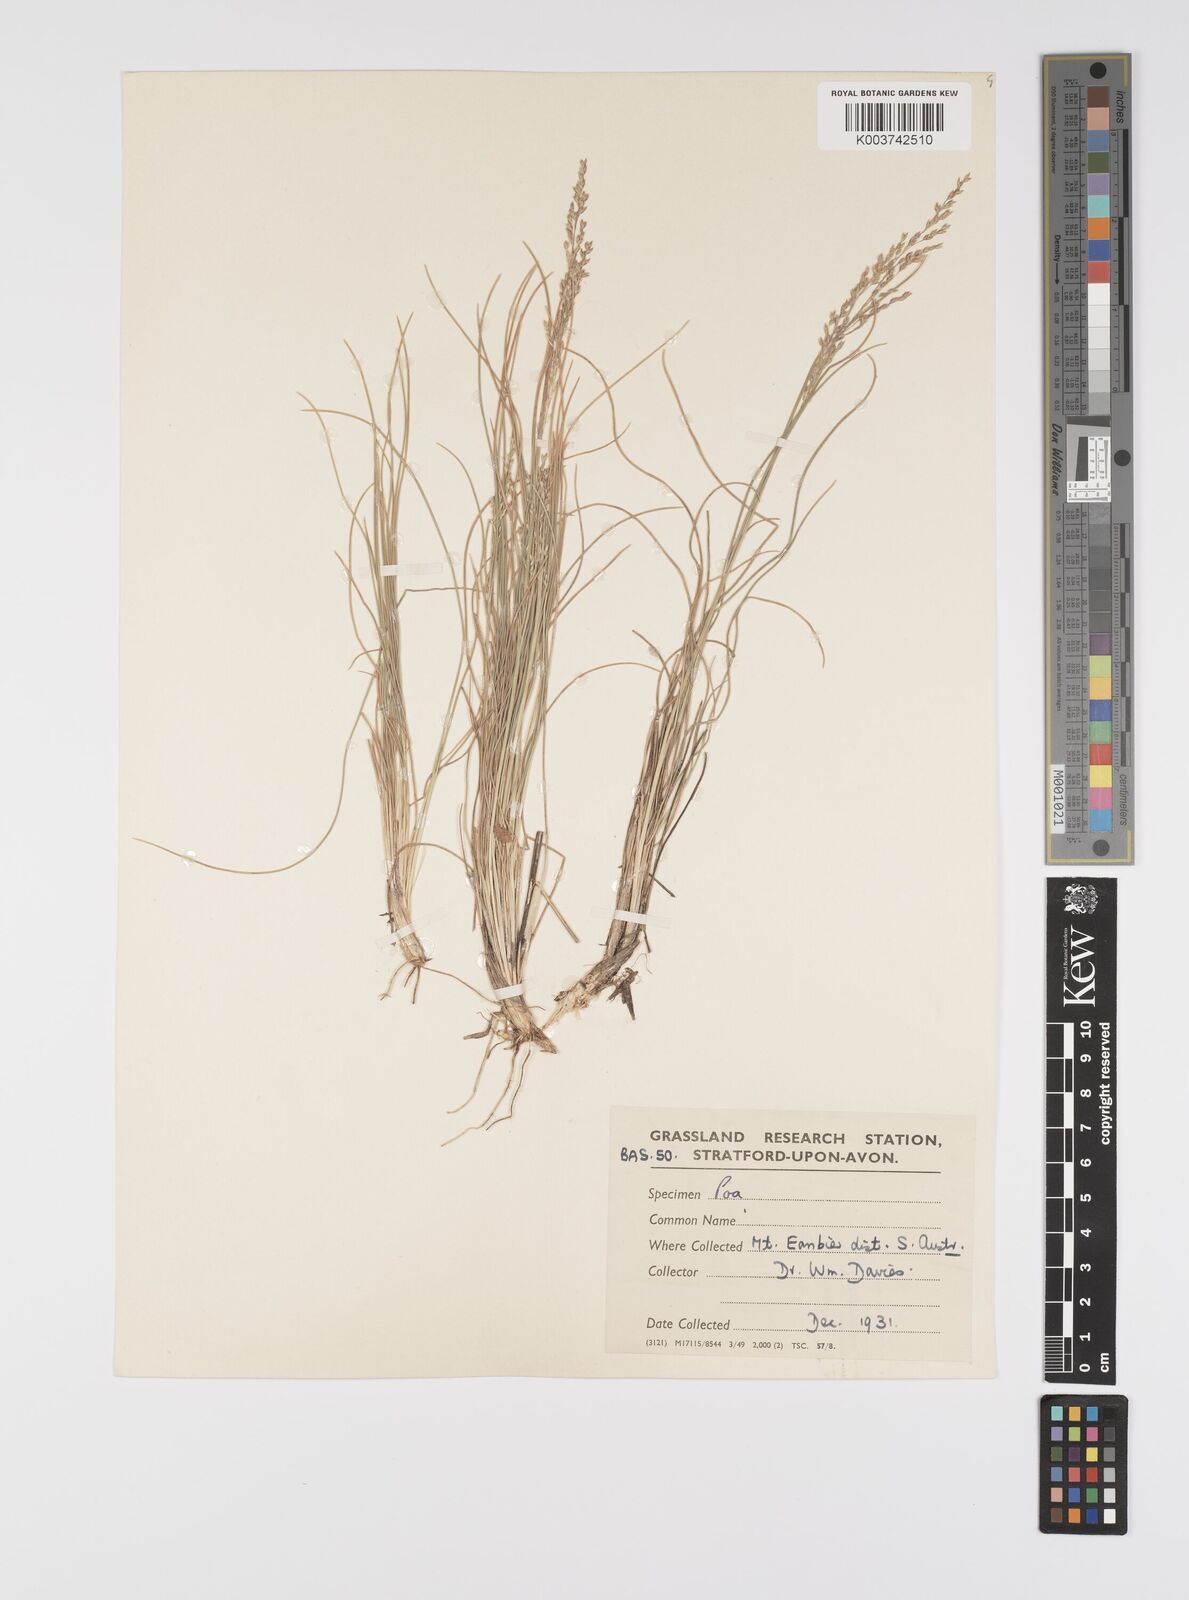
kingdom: Plantae
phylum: Tracheophyta
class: Liliopsida
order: Poales
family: Poaceae
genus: Poa
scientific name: Poa
